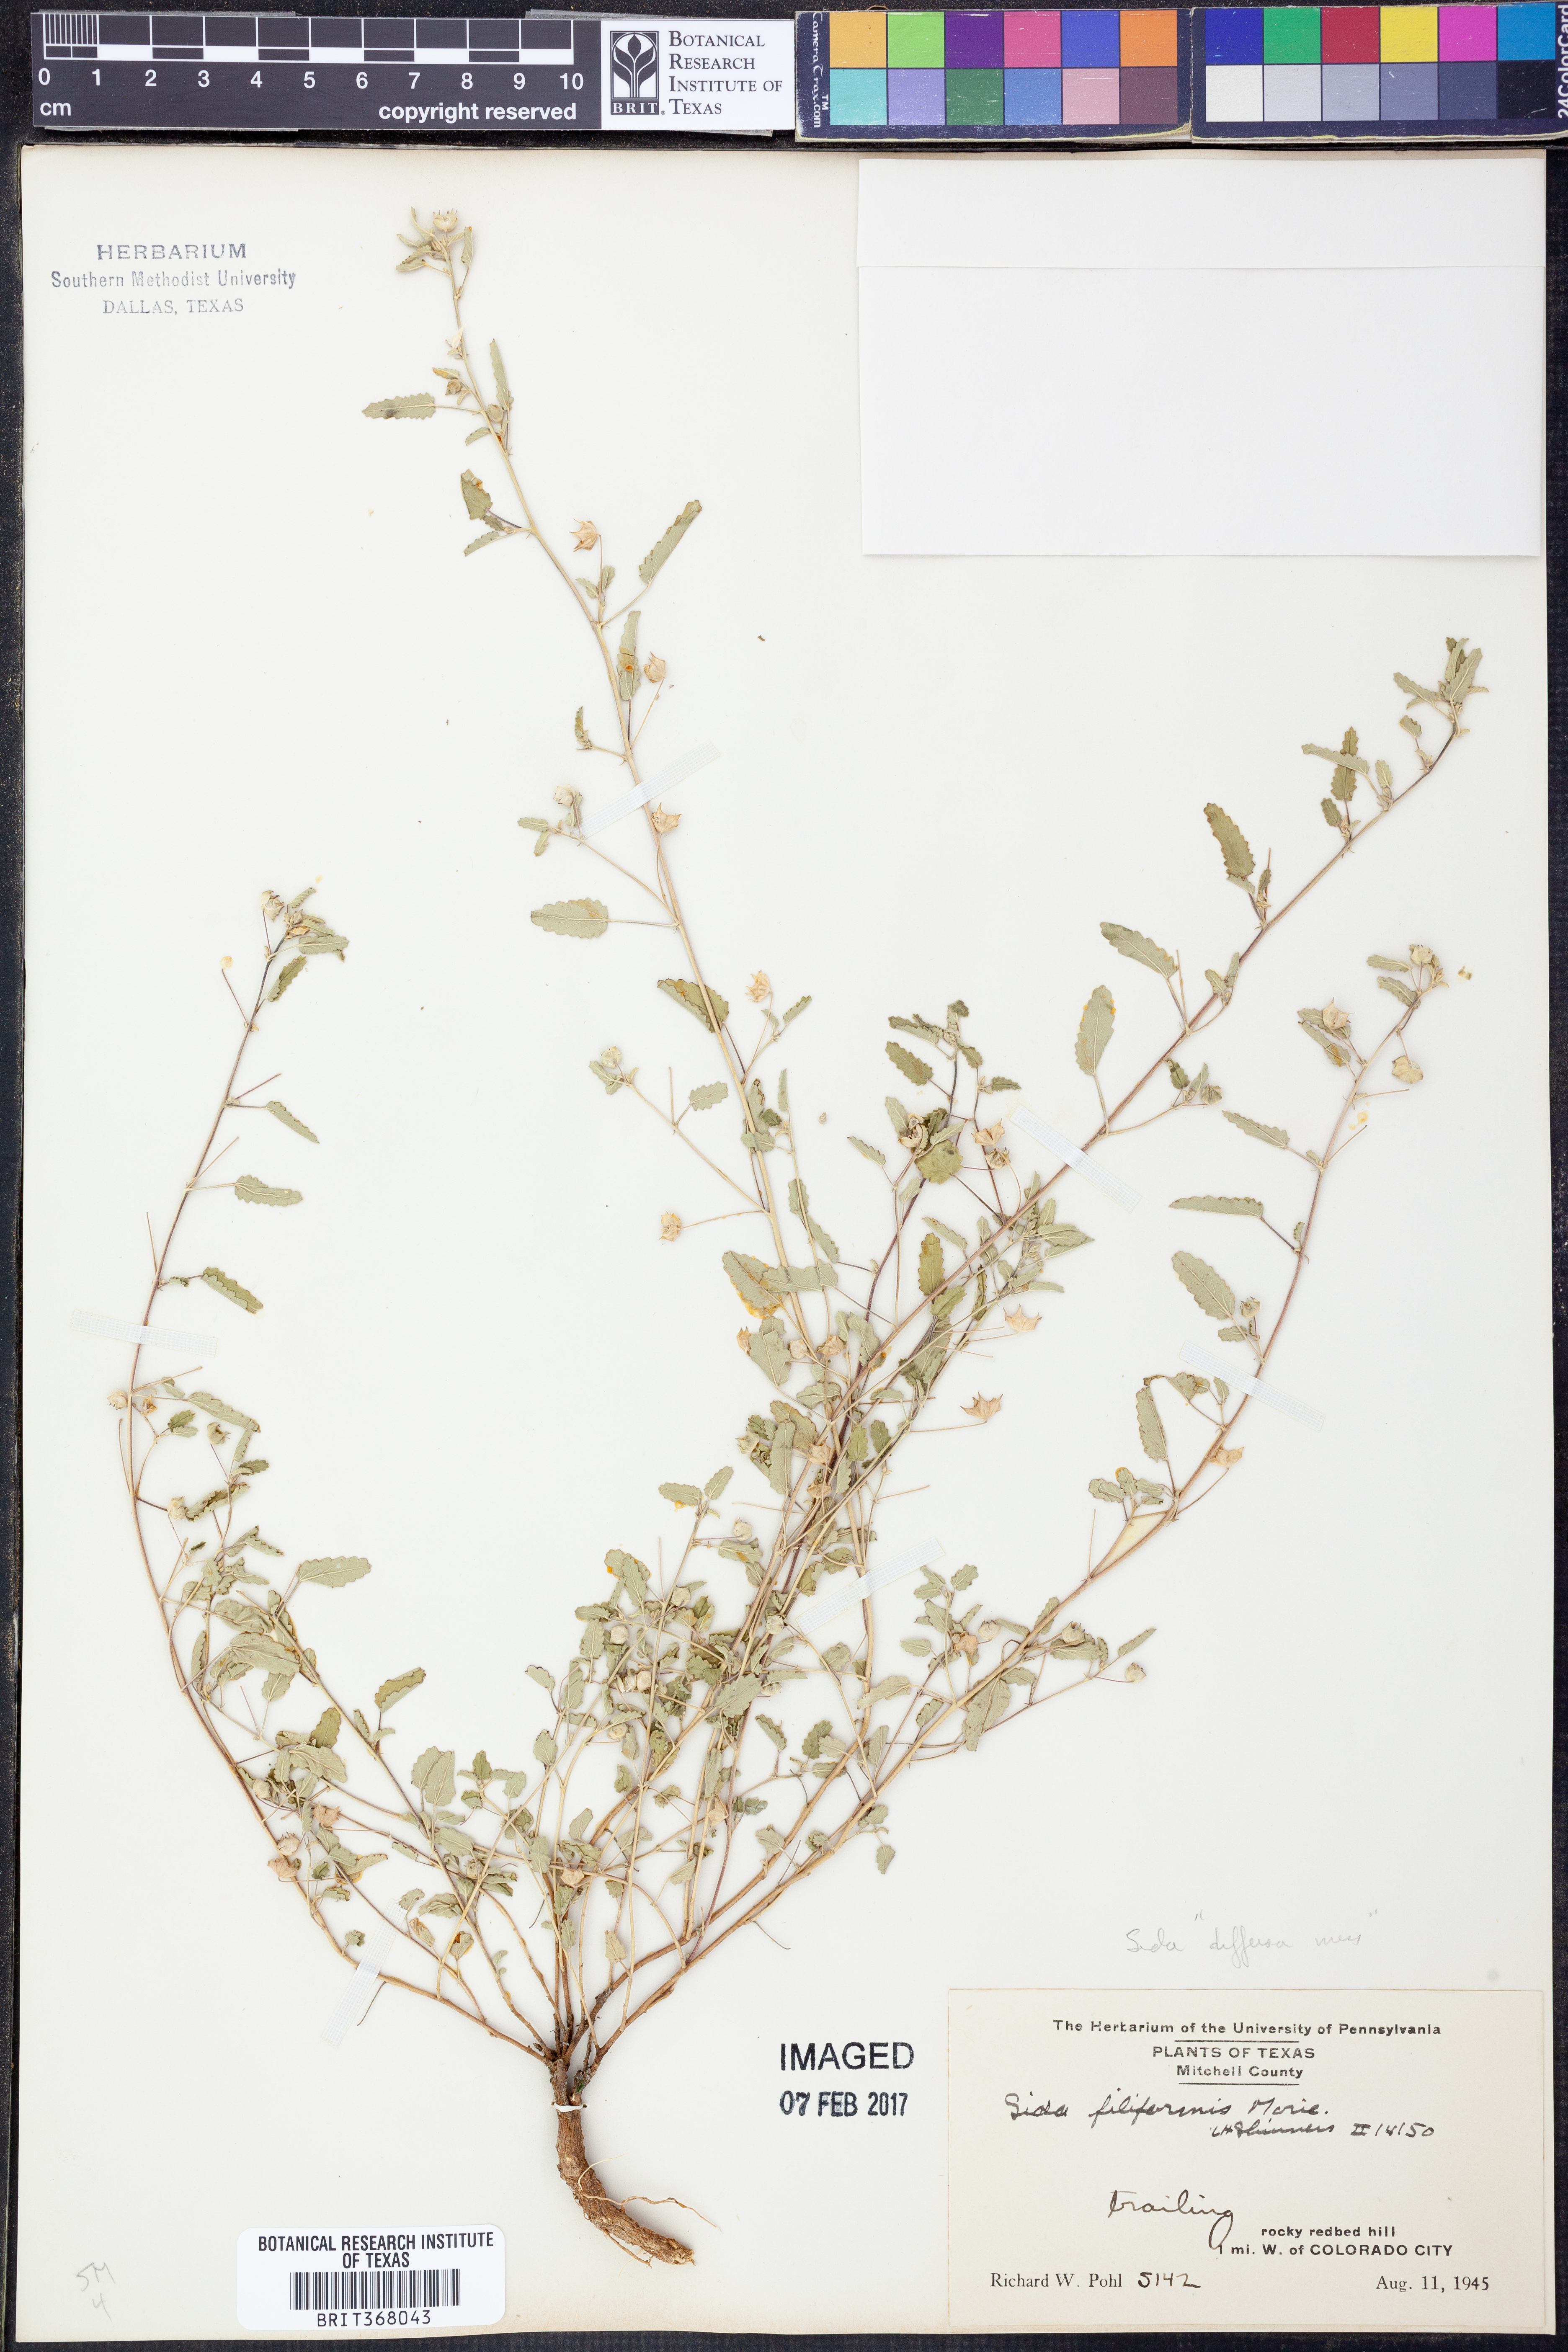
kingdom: Plantae
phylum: Tracheophyta
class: Magnoliopsida
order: Malvales
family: Malvaceae
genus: Sida
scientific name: Sida abutilifolia
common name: Spreading fanpetals
